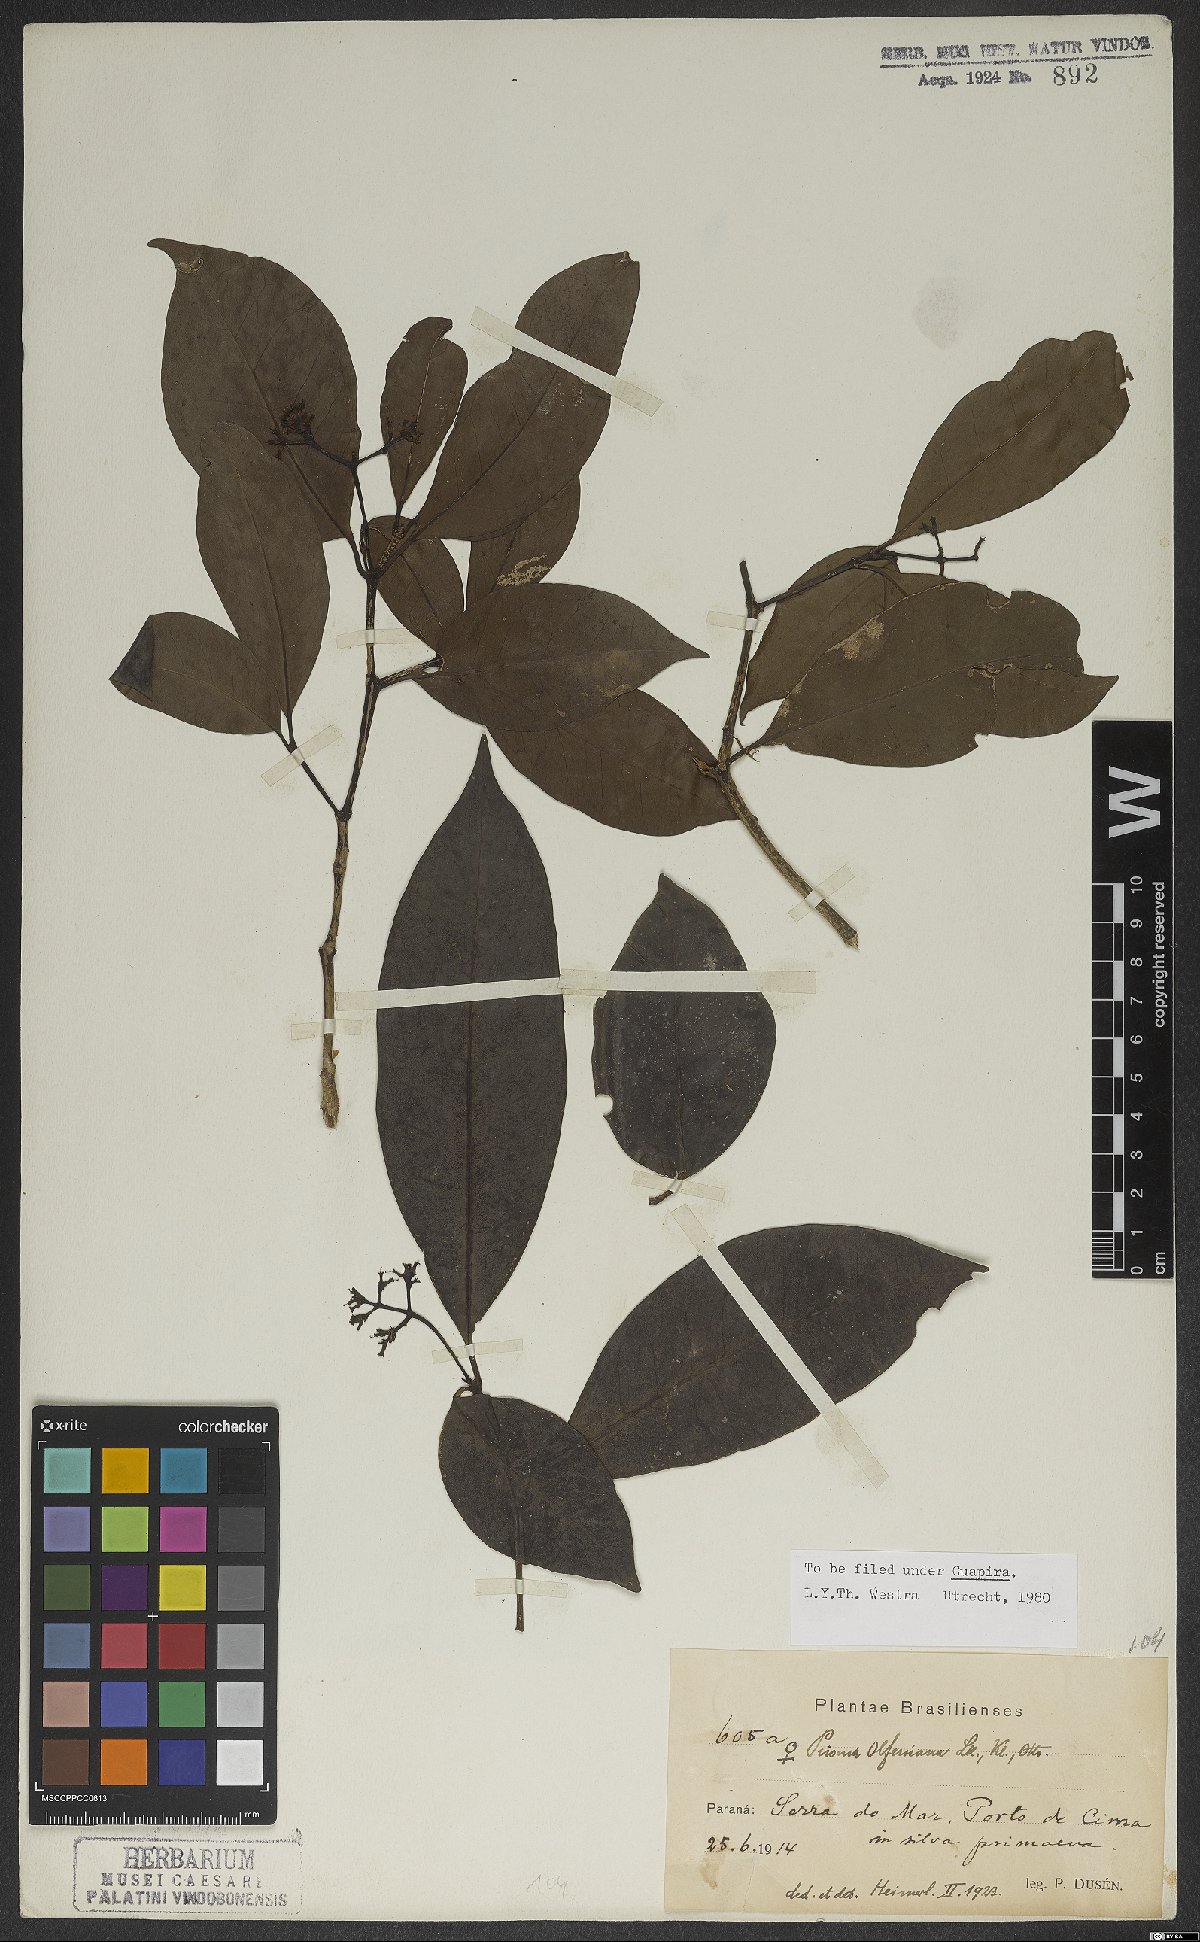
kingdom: Plantae
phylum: Tracheophyta
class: Magnoliopsida
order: Caryophyllales
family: Nyctaginaceae
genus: Guapira
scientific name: Guapira opposita
